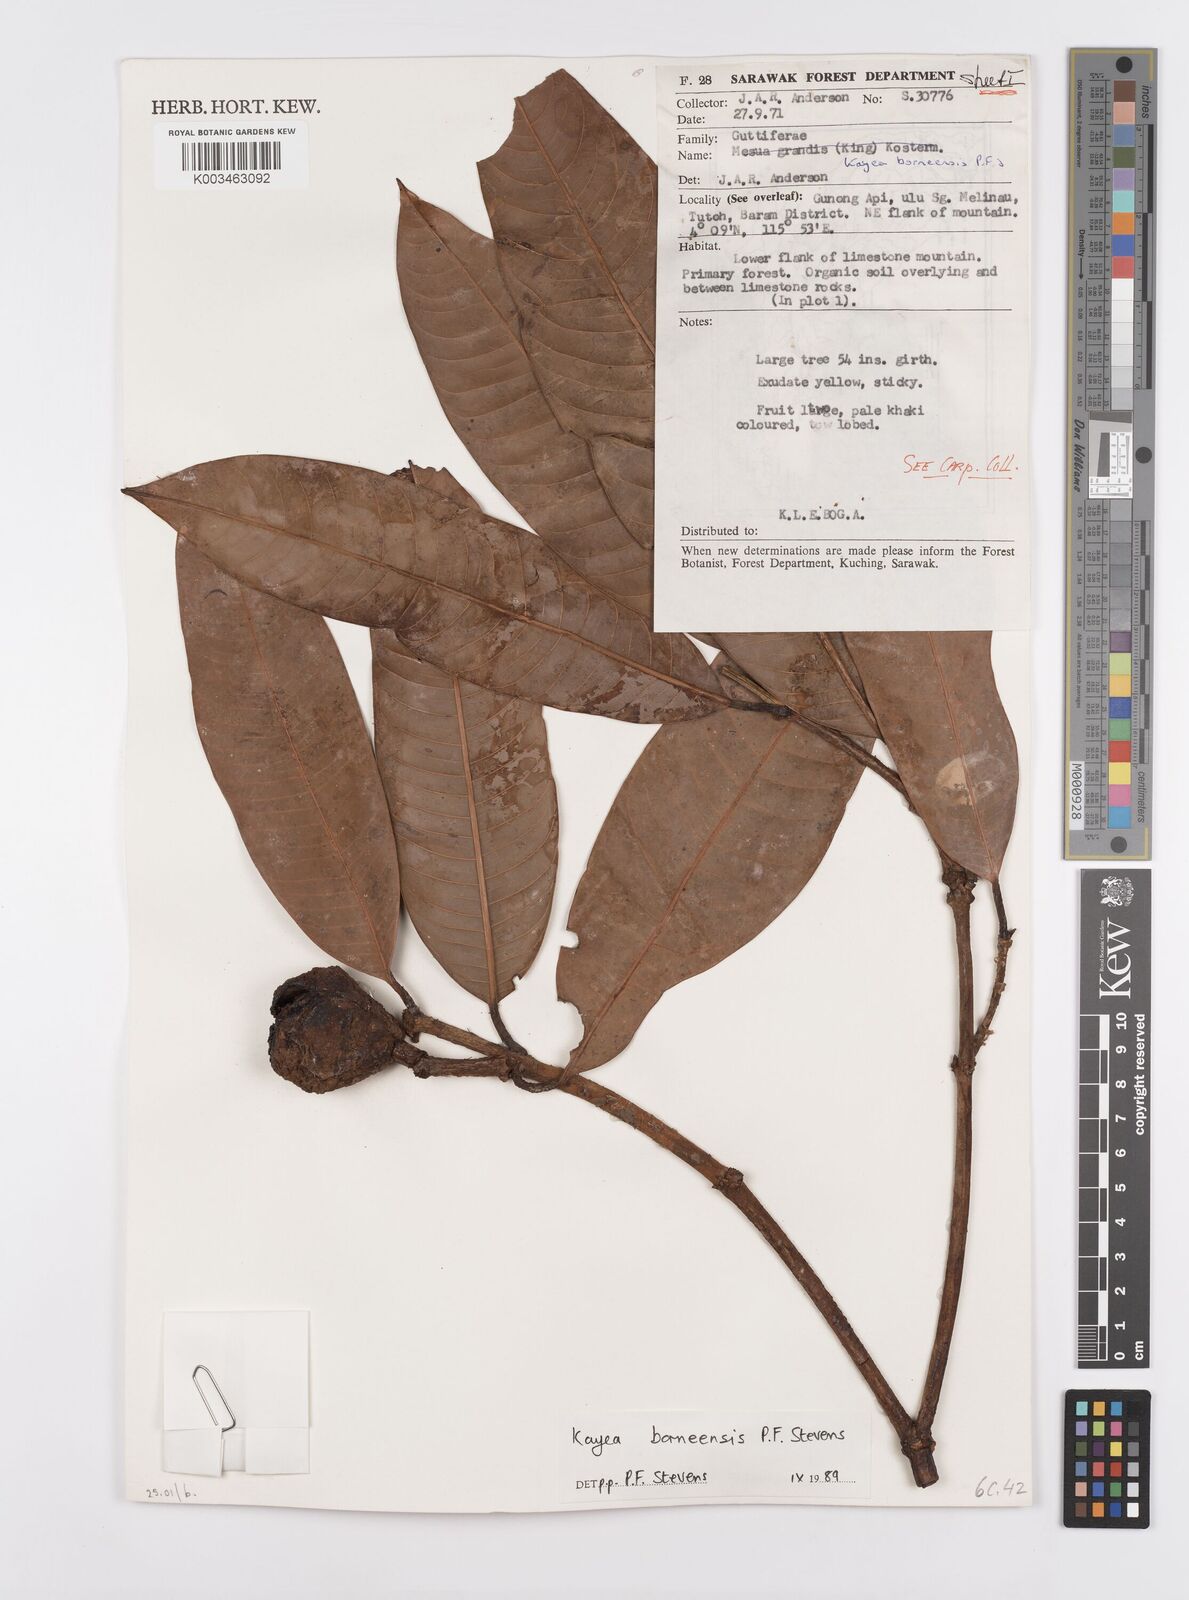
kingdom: Plantae
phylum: Tracheophyta
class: Magnoliopsida
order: Malpighiales
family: Calophyllaceae
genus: Kayea
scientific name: Kayea borneensis
